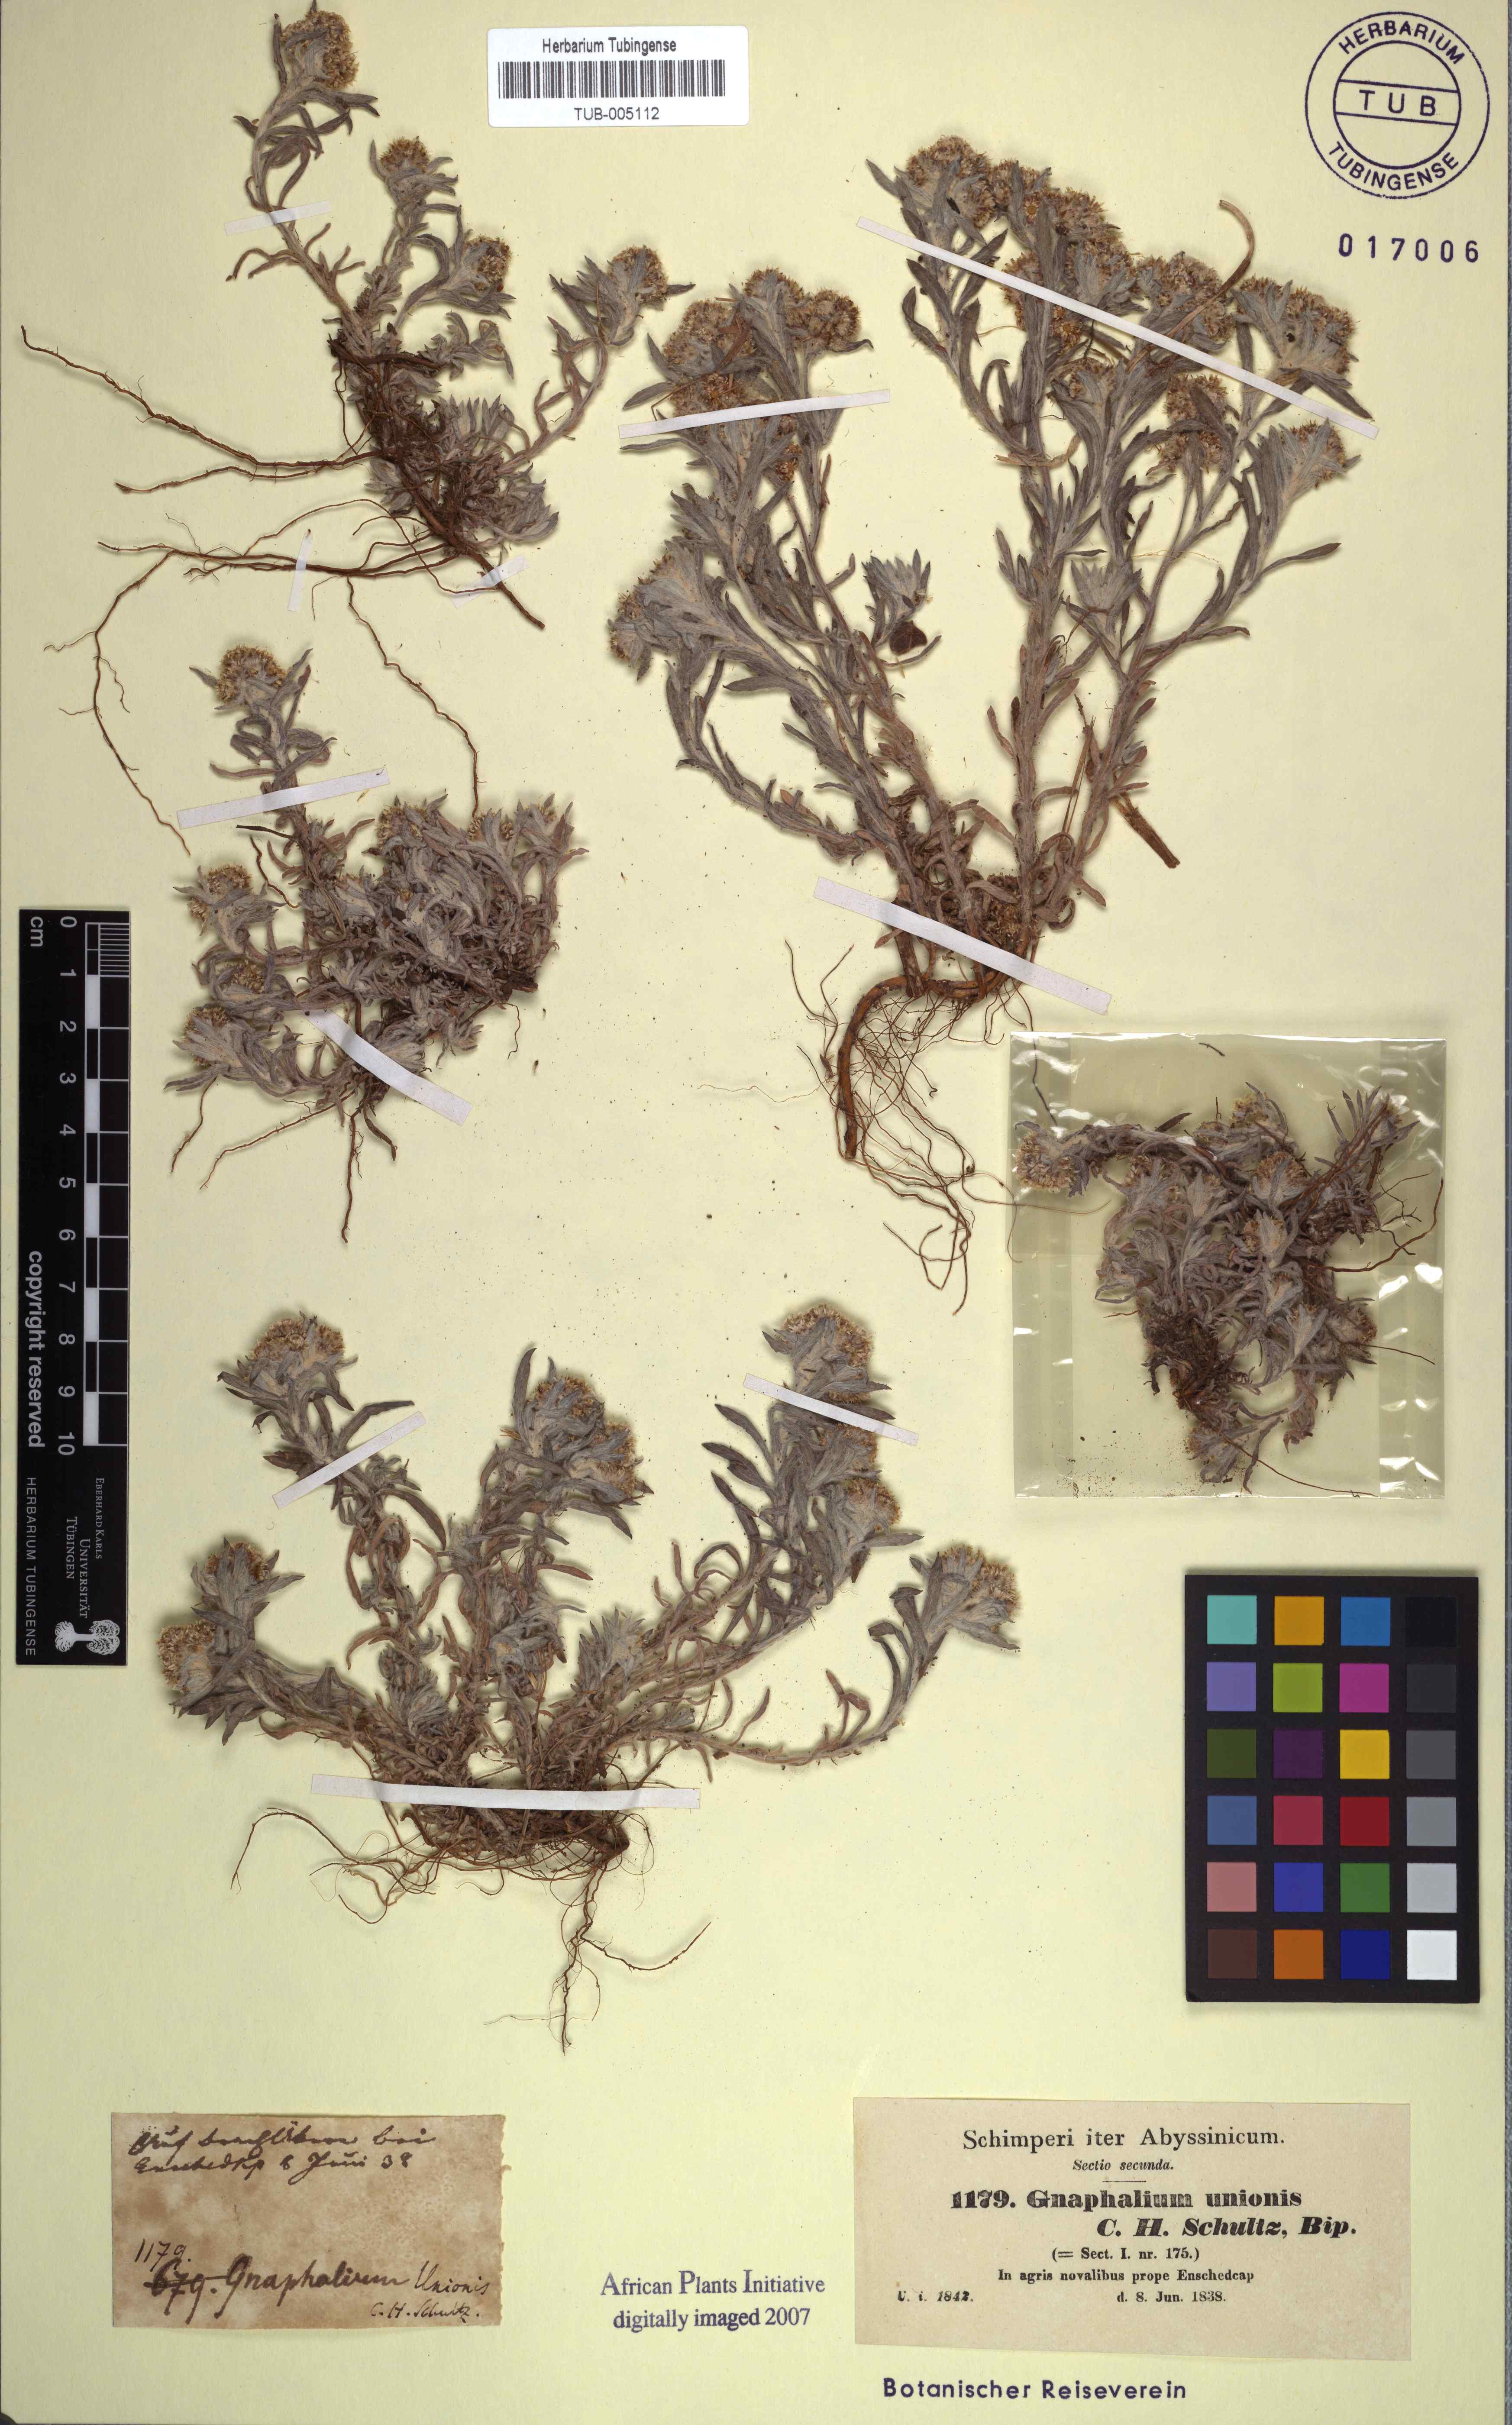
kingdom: Plantae
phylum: Tracheophyta
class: Magnoliopsida
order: Asterales
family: Asteraceae
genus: Gnaphalium
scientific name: Gnaphalium unionis
